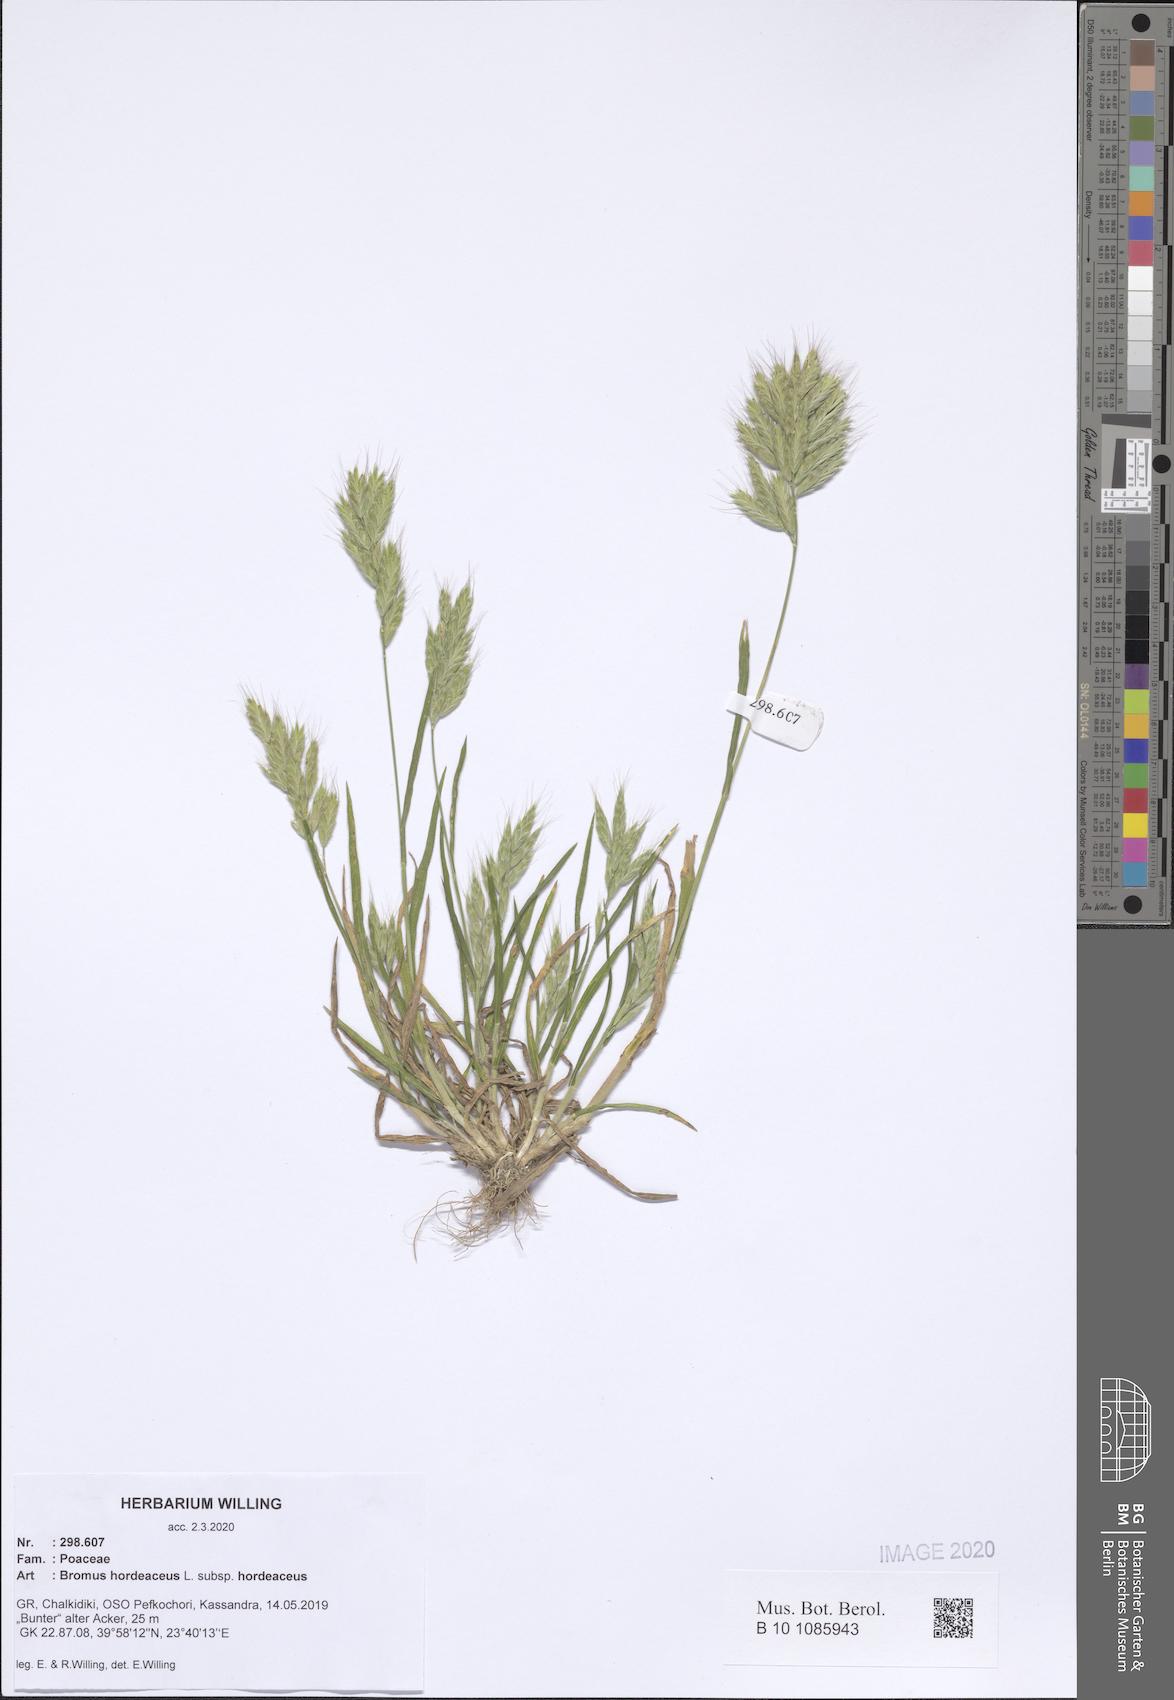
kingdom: Plantae
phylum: Tracheophyta
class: Liliopsida
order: Poales
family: Poaceae
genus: Bromus
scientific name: Bromus hordeaceus
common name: Soft brome
